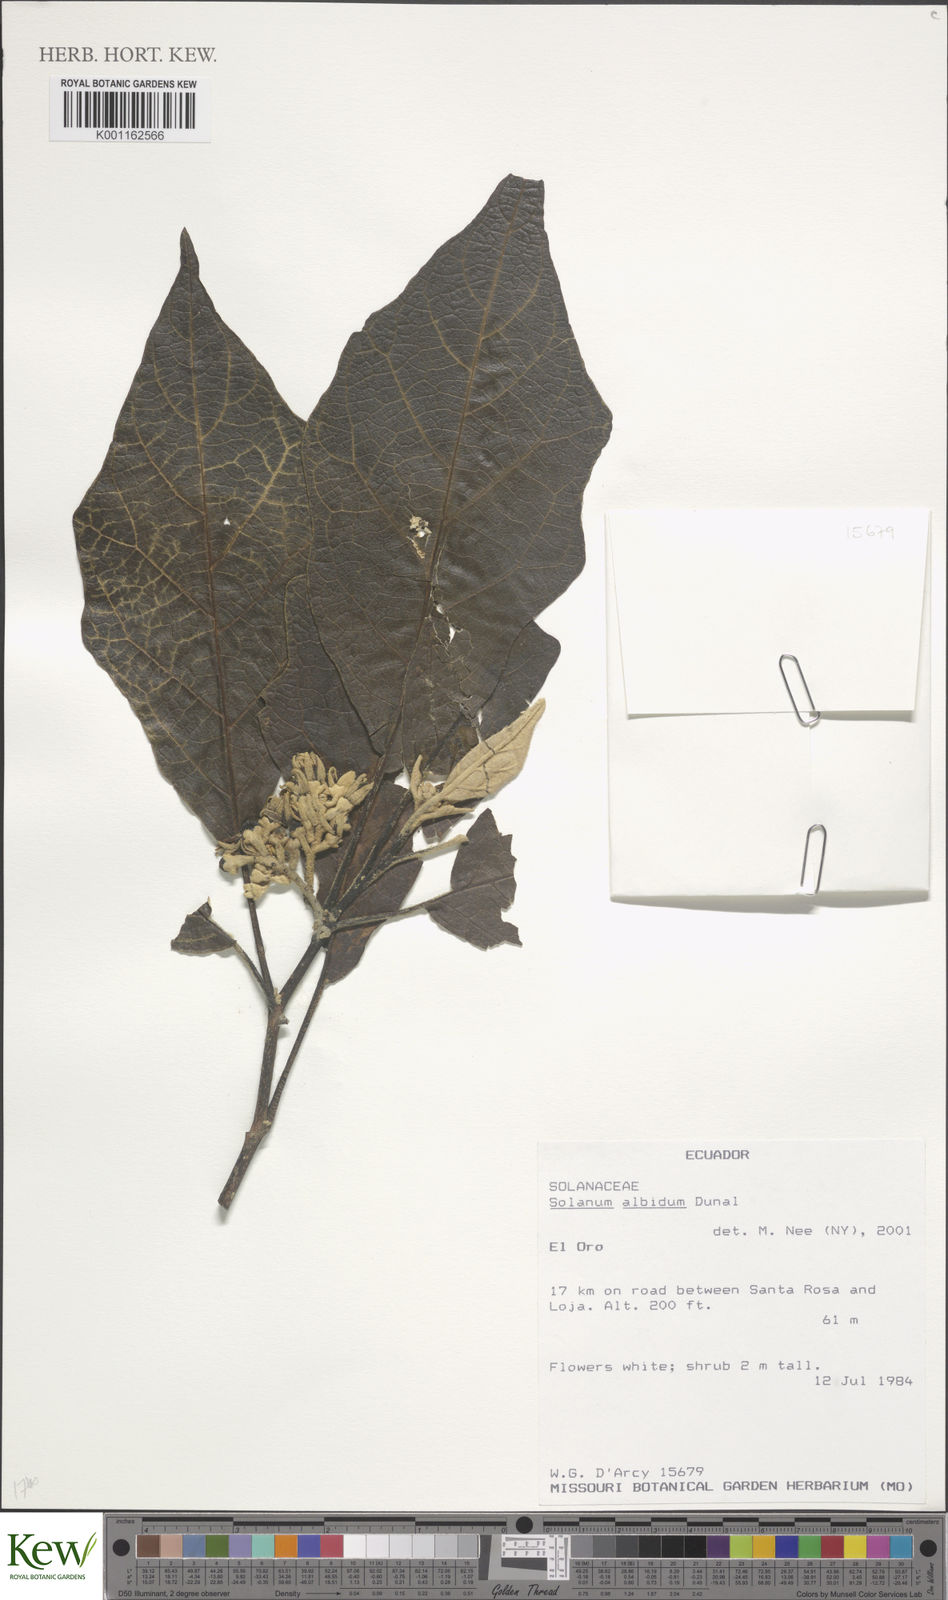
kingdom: Plantae
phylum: Tracheophyta
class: Magnoliopsida
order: Solanales
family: Solanaceae
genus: Solanum
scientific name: Solanum albidum
